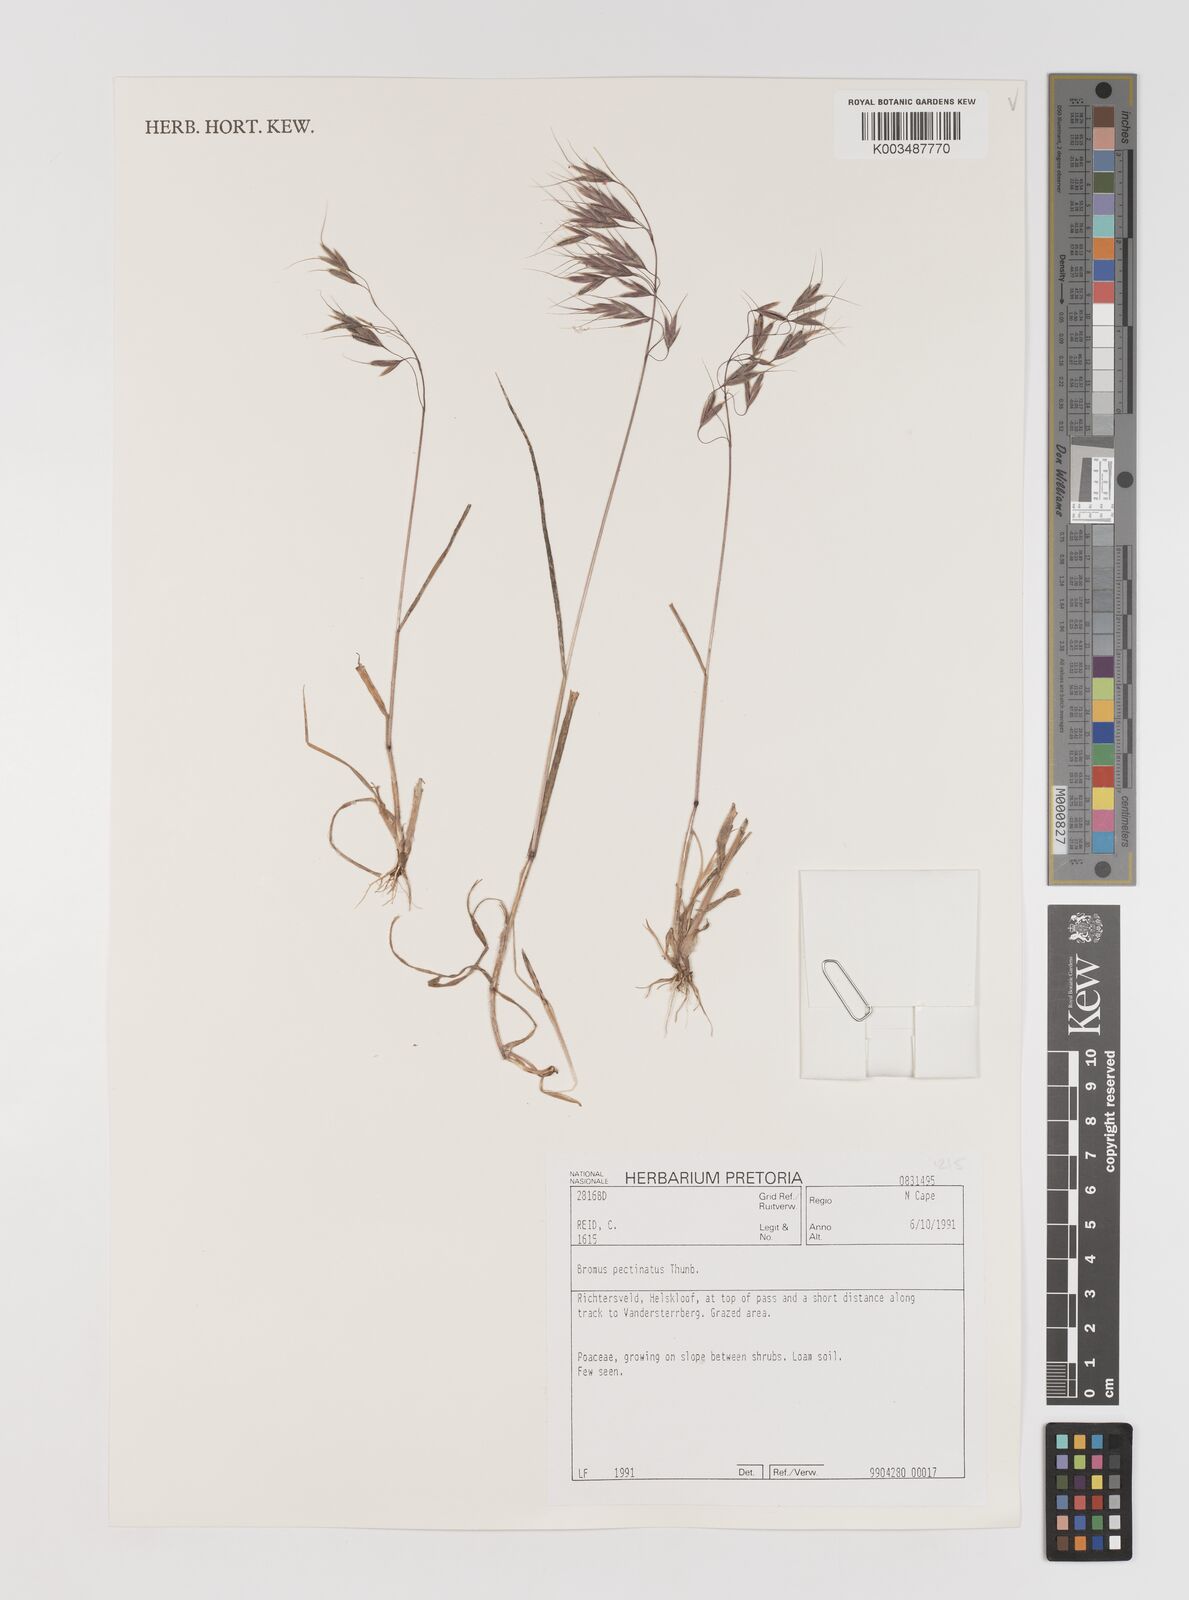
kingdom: Plantae
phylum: Tracheophyta
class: Liliopsida
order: Poales
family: Poaceae
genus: Bromus
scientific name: Bromus pectinatus
